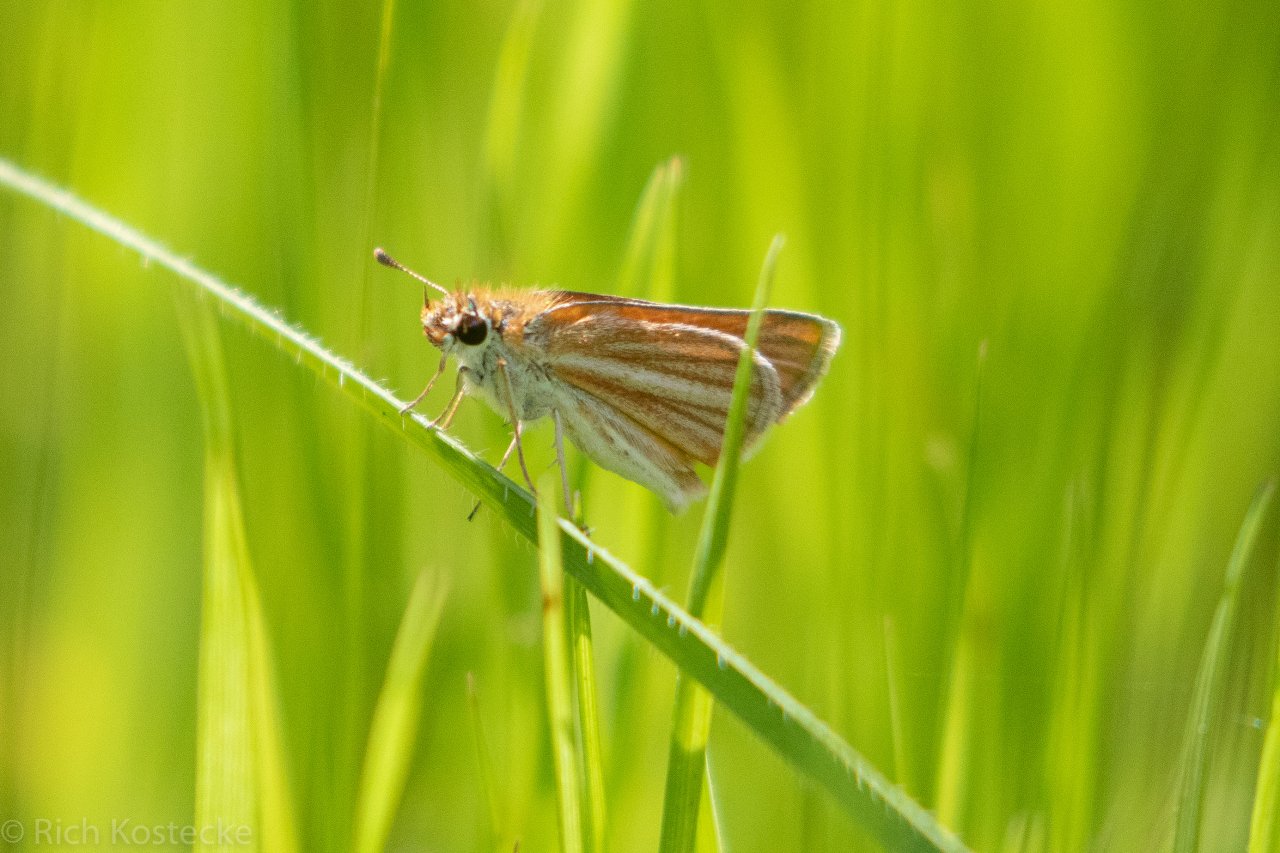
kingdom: Animalia
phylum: Arthropoda
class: Insecta
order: Lepidoptera
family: Hesperiidae
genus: Copaeodes
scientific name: Copaeodes minima
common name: Southern Skipperling
